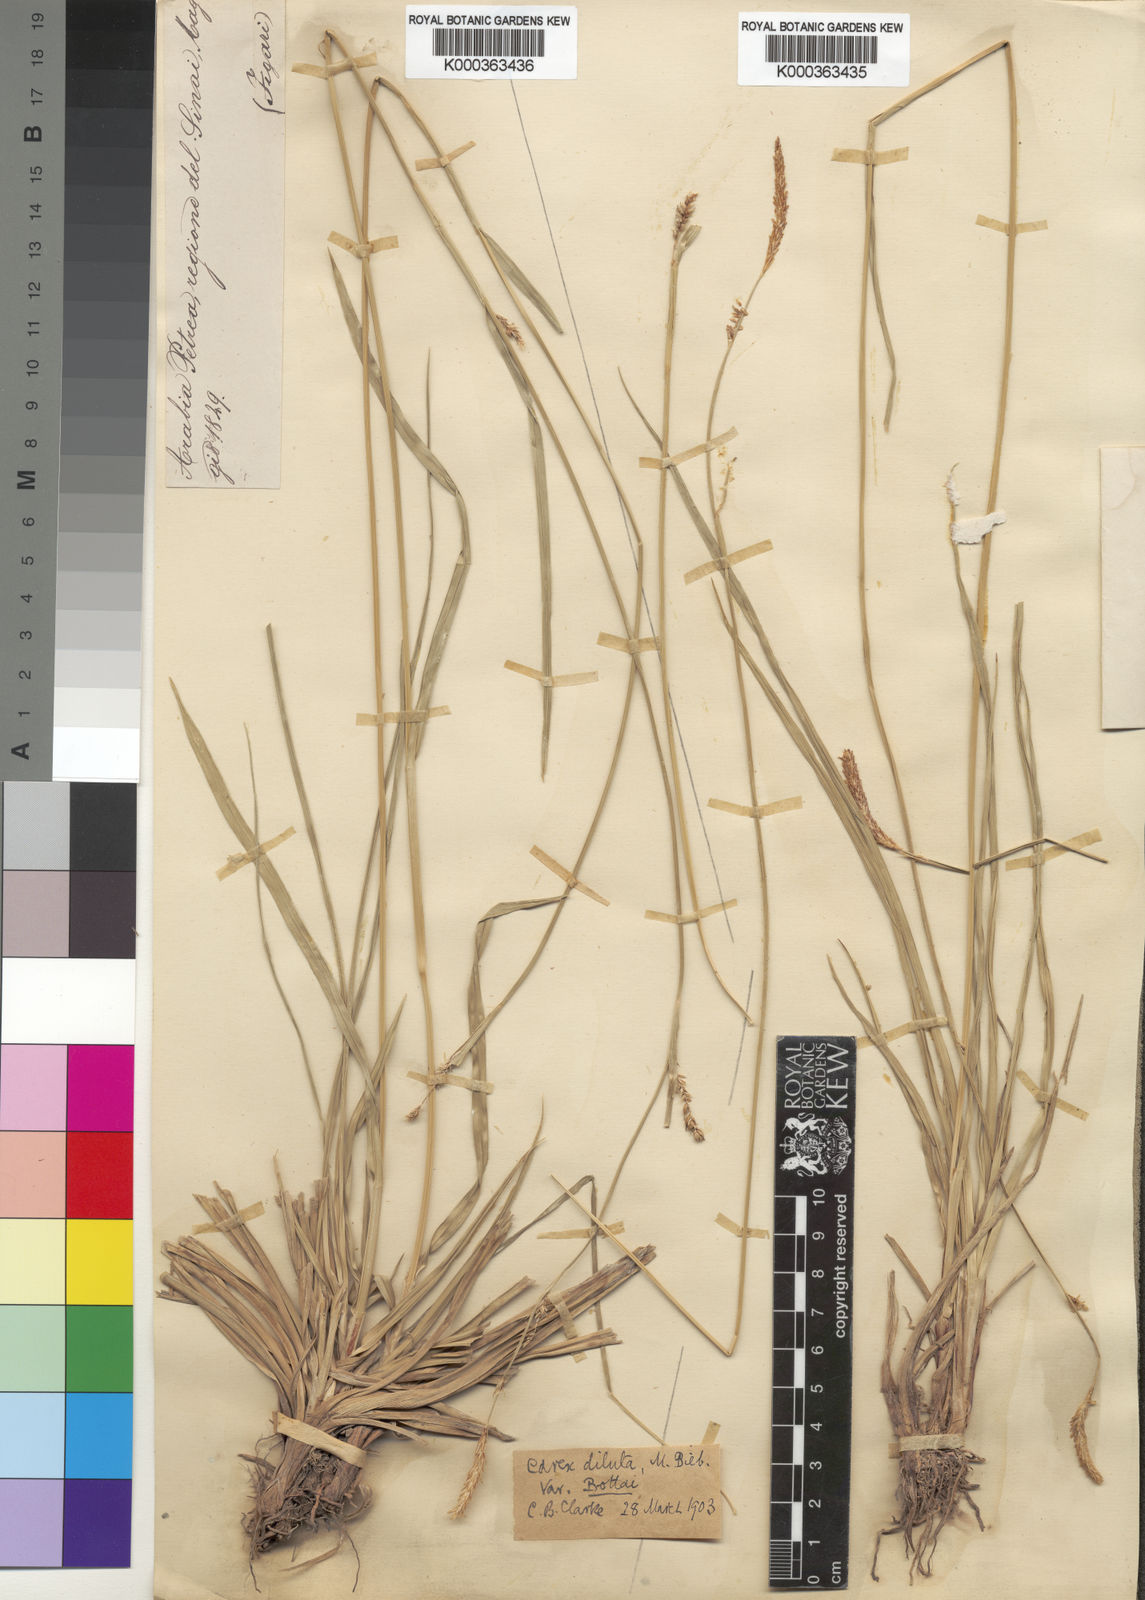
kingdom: Plantae
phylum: Tracheophyta
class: Liliopsida
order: Poales
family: Cyperaceae
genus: Carex
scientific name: Carex distans
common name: Distant sedge
